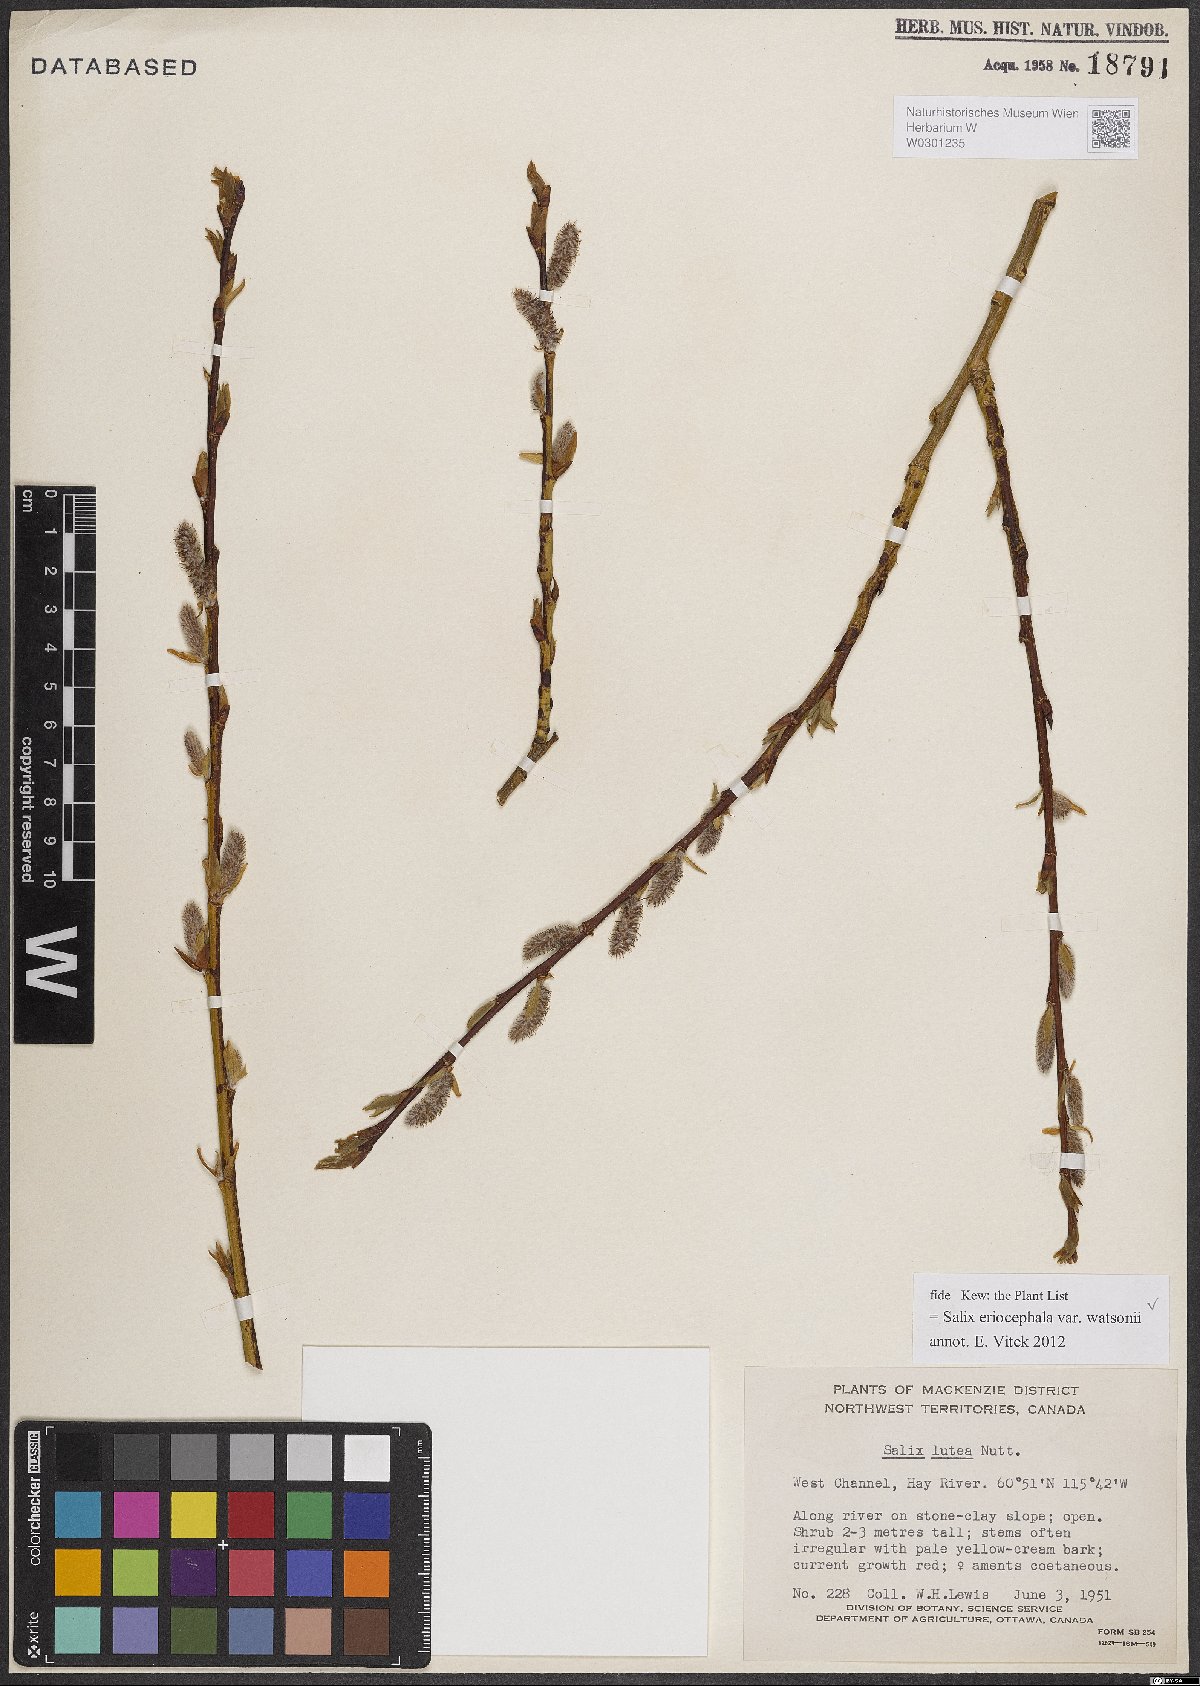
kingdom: Plantae
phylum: Tracheophyta
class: Magnoliopsida
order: Malpighiales
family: Salicaceae
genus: Salix
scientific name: Salix lutea
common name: Yellow willow
